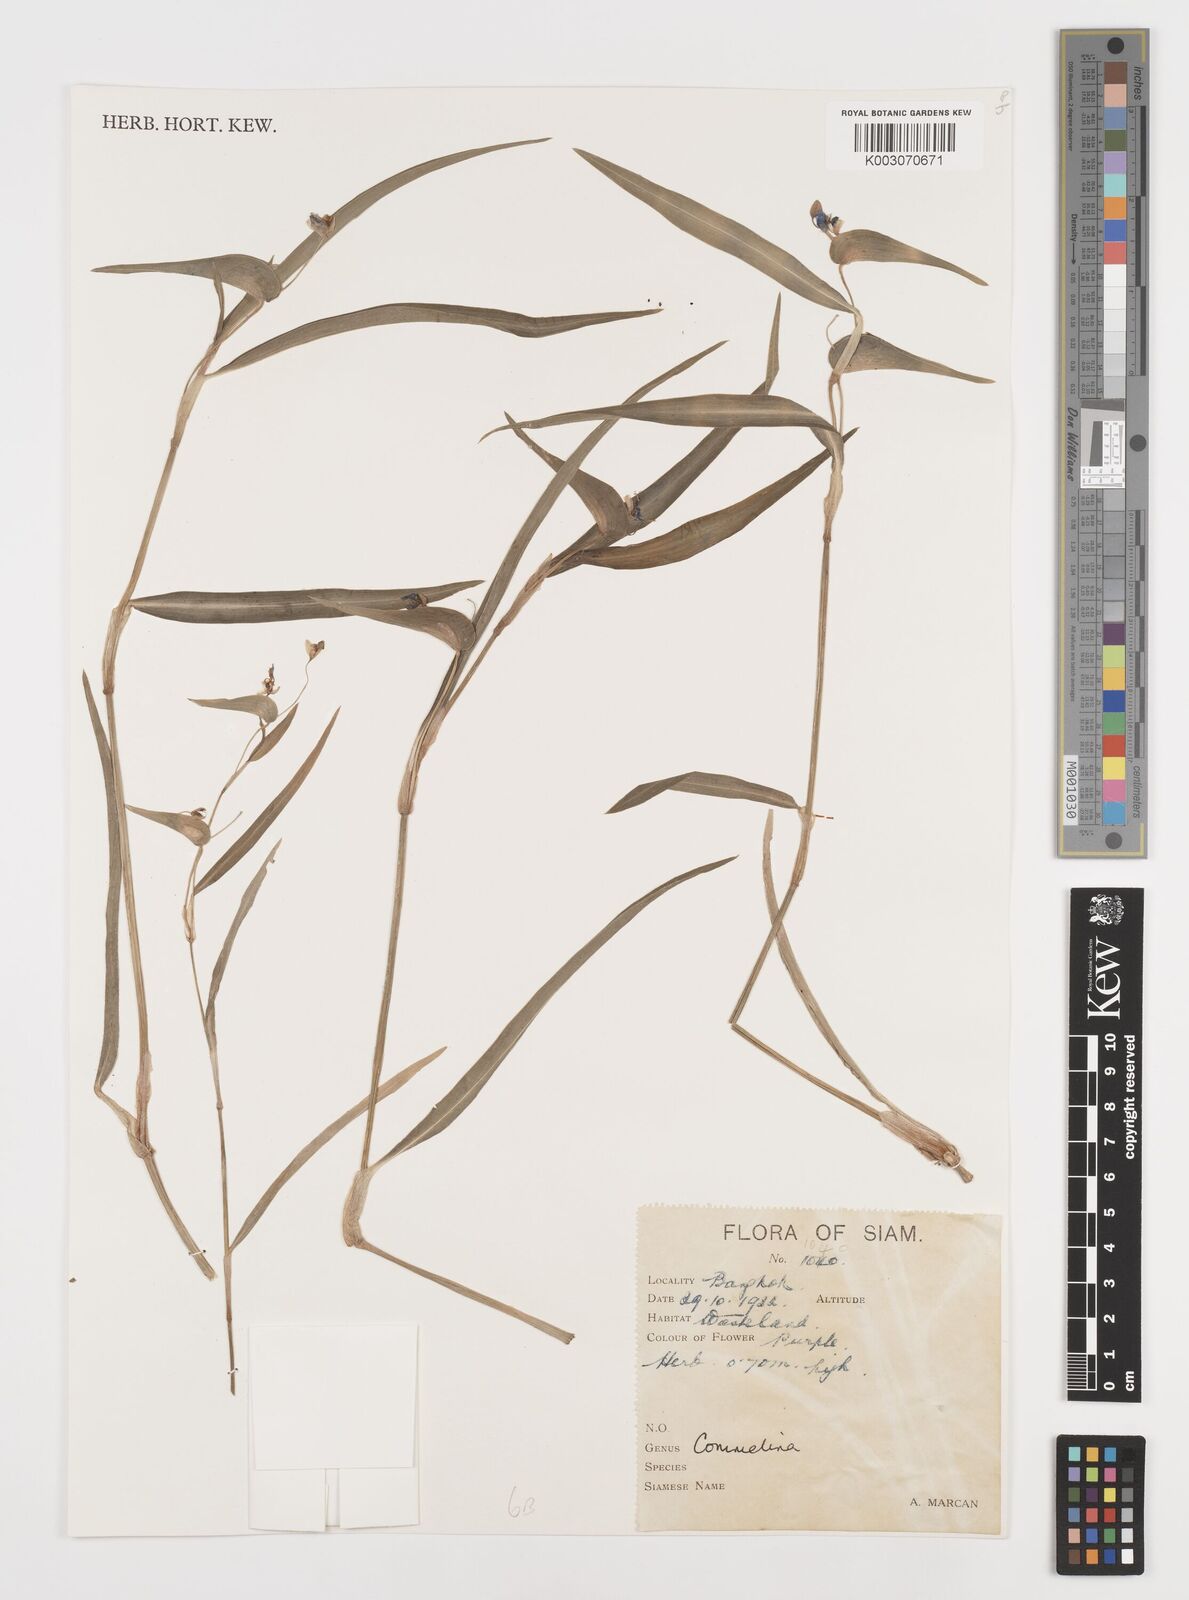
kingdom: Plantae
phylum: Tracheophyta
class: Liliopsida
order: Commelinales
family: Commelinaceae
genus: Commelina
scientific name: Commelina
